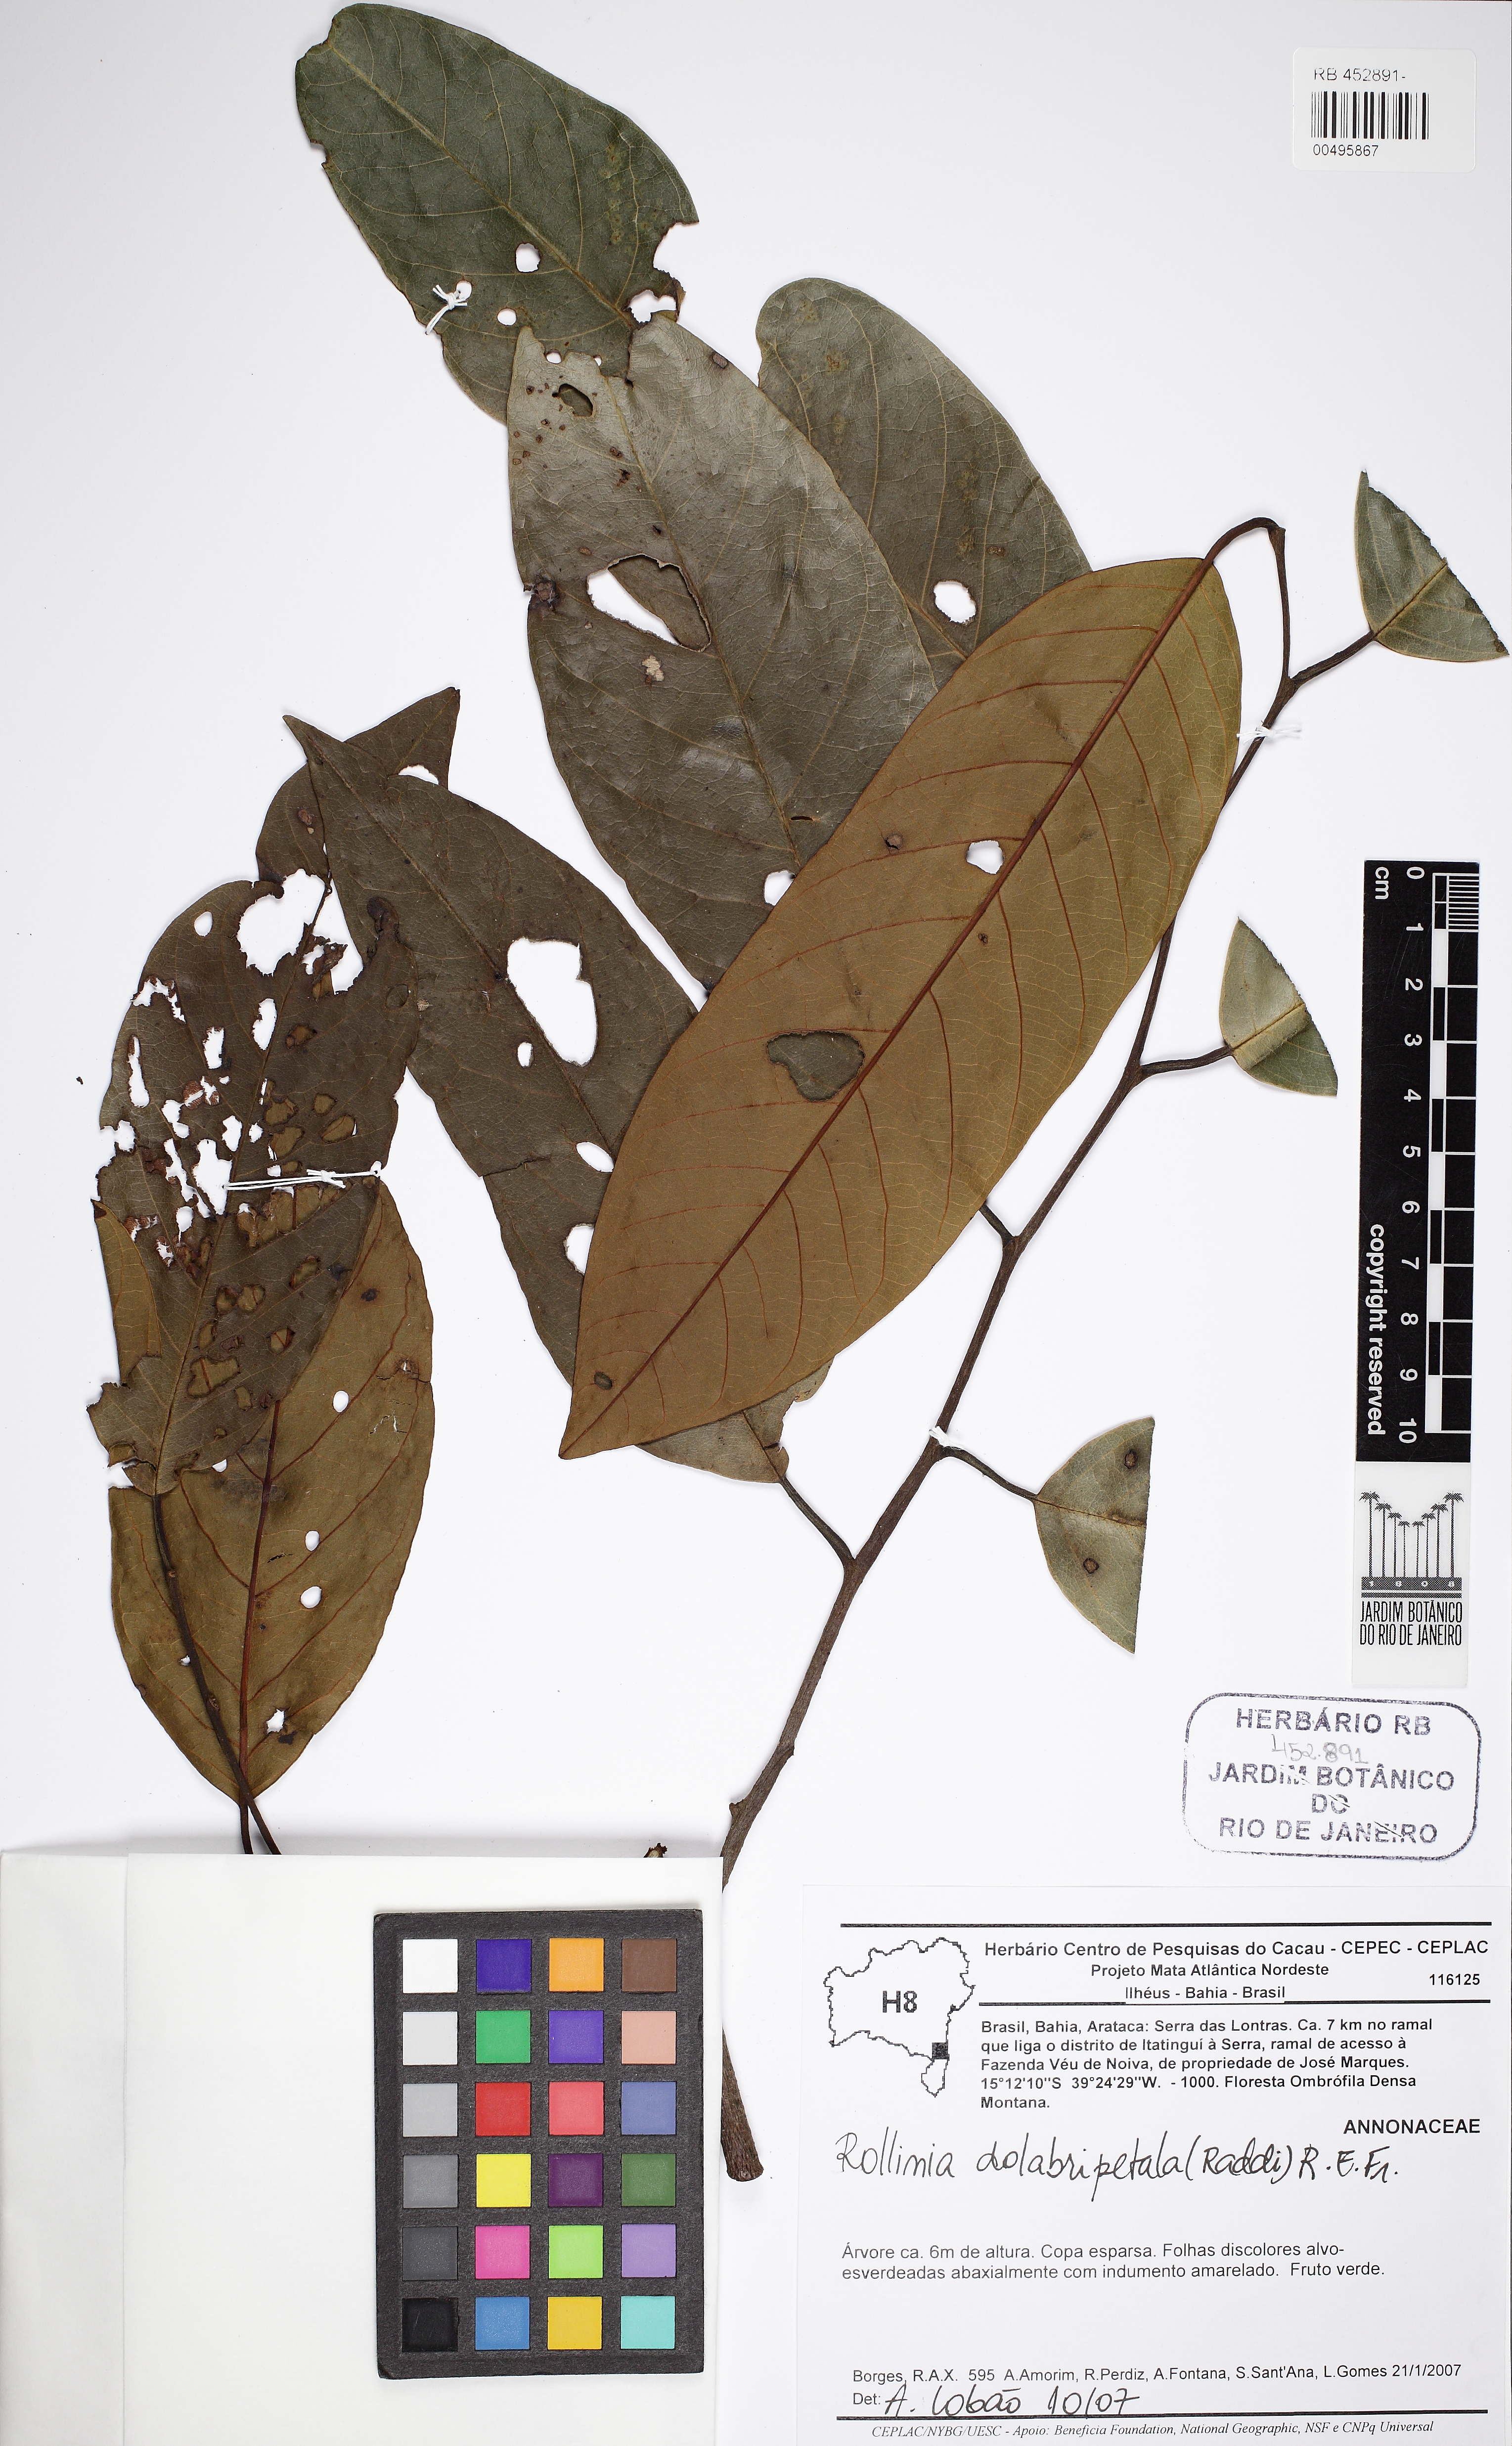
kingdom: Plantae
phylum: Tracheophyta
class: Magnoliopsida
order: Magnoliales
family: Annonaceae
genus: Annona
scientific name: Annona dolabripetala
